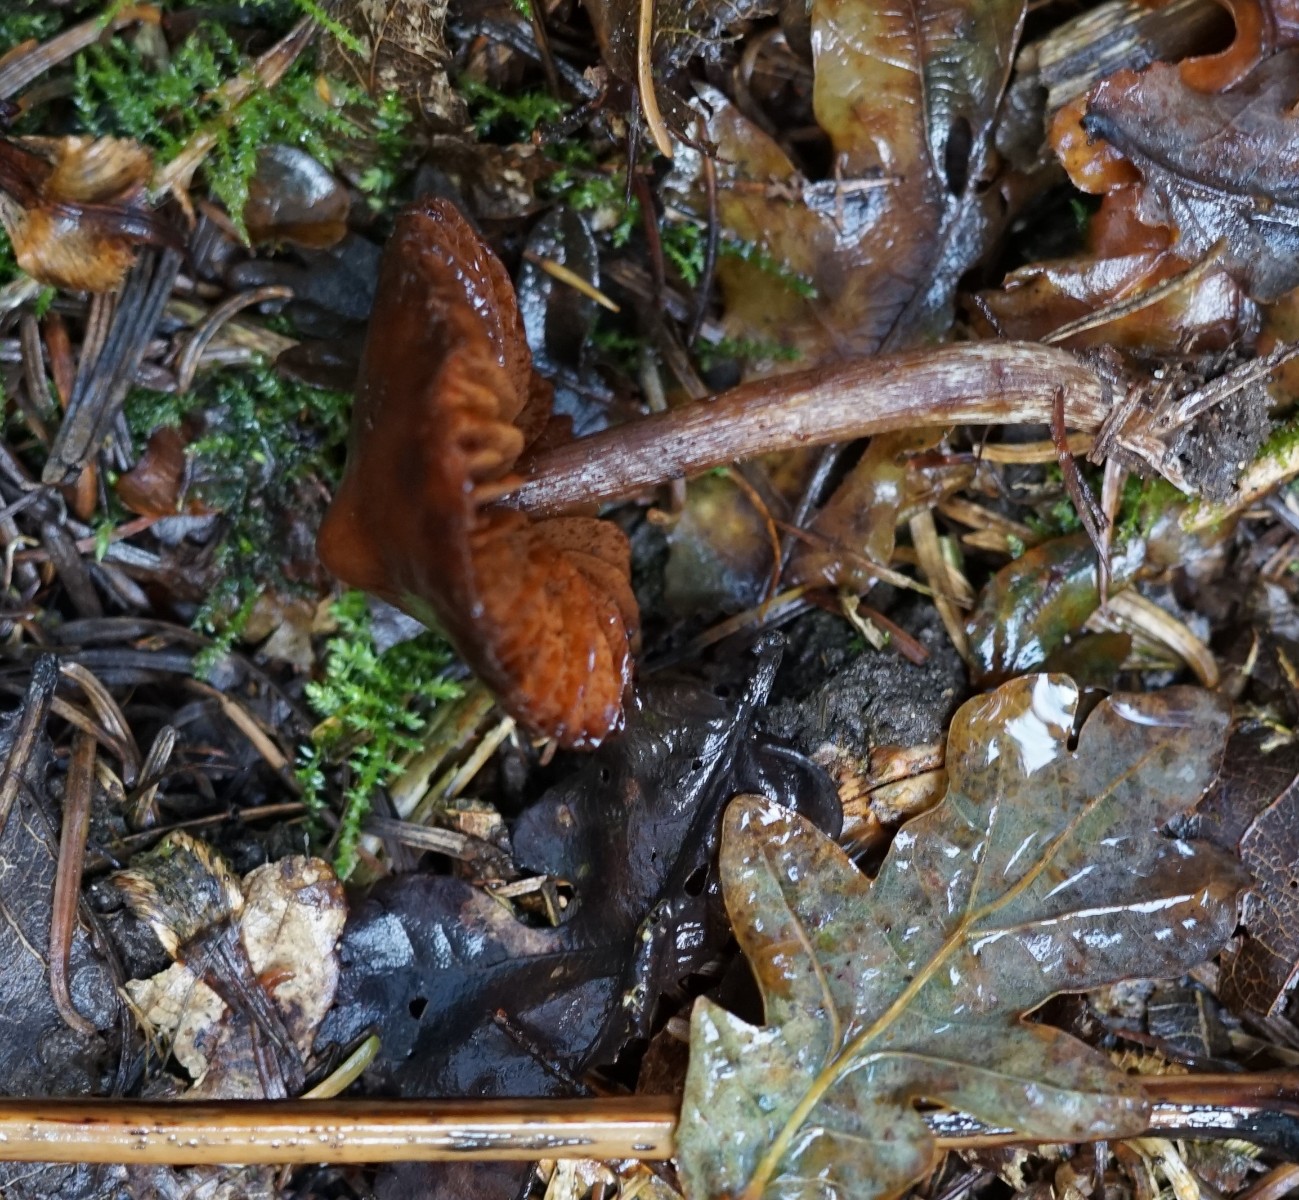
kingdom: Fungi
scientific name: Fungi
